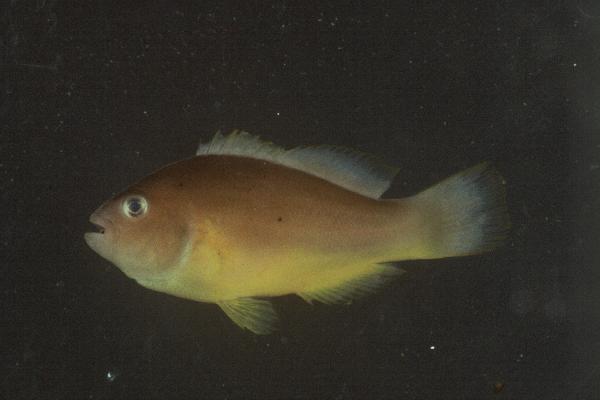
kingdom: Animalia
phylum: Chordata
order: Perciformes
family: Pomacentridae
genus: Amphiprion
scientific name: Amphiprion akallopisos
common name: Skunk clownfish
